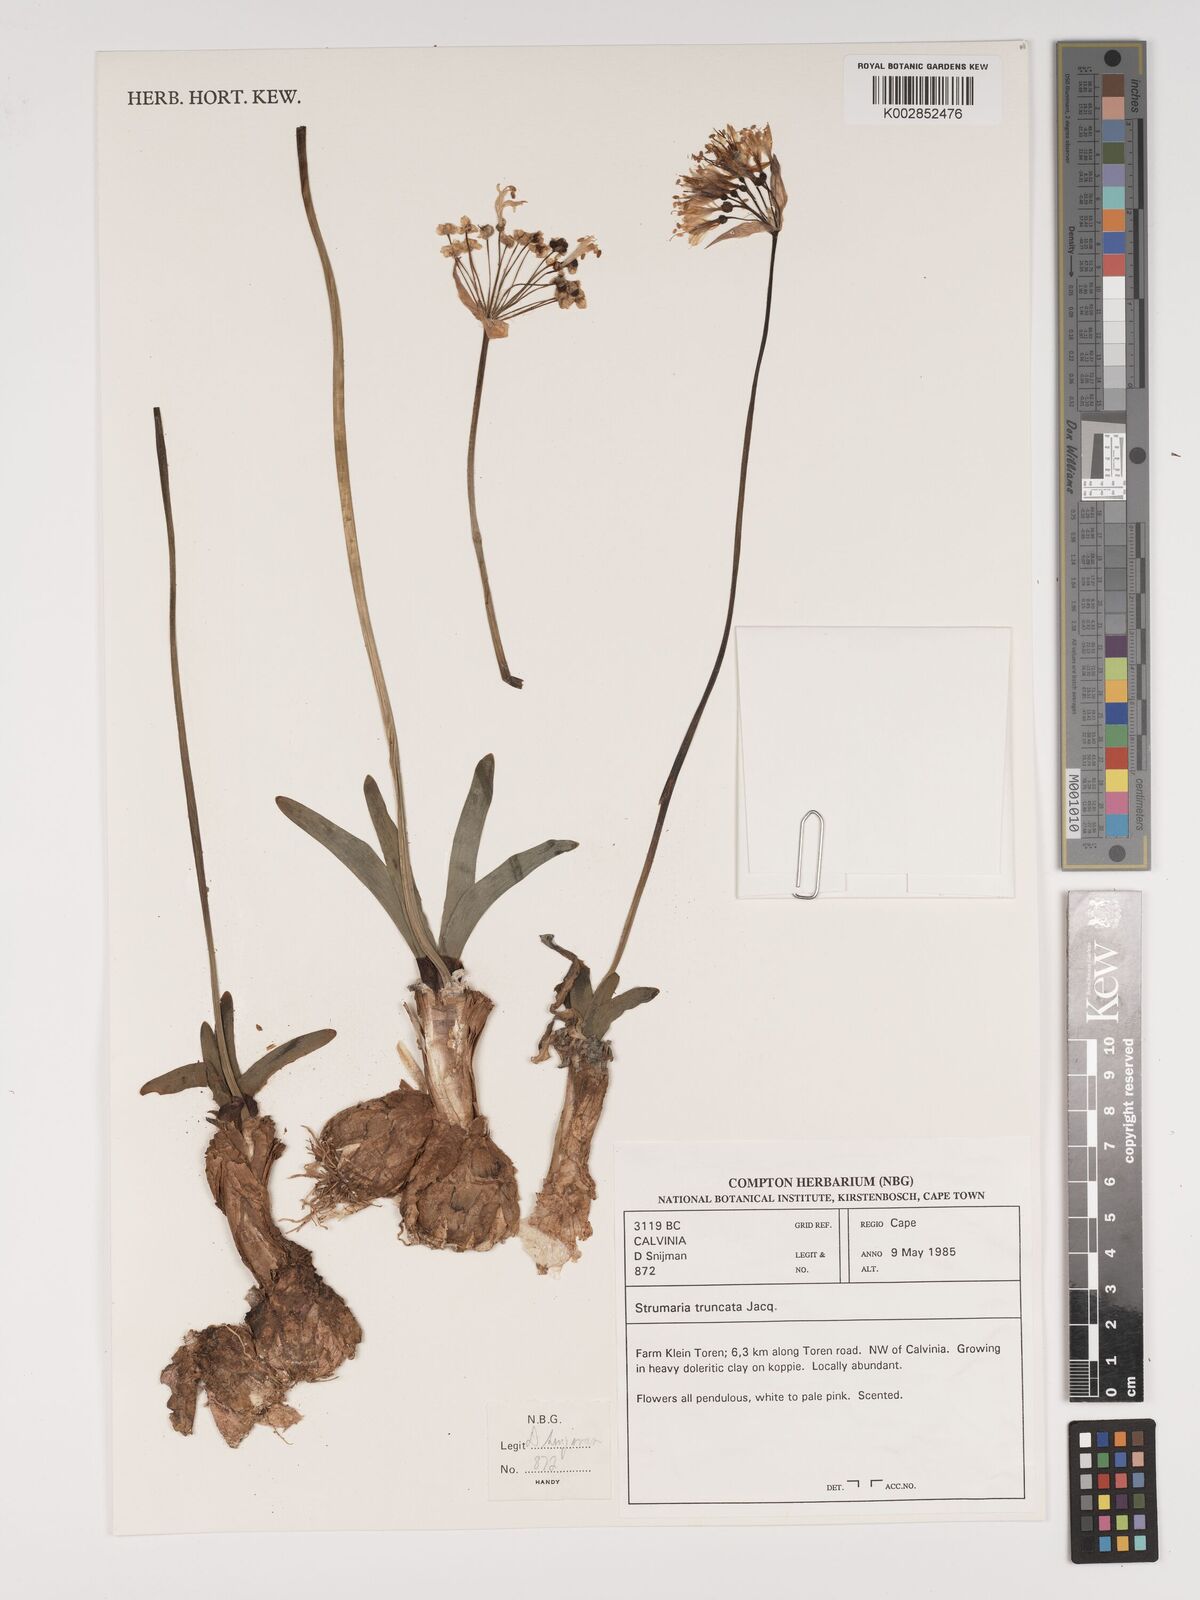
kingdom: Plantae
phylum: Tracheophyta
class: Liliopsida
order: Asparagales
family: Amaryllidaceae
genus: Strumaria
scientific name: Strumaria truncata
